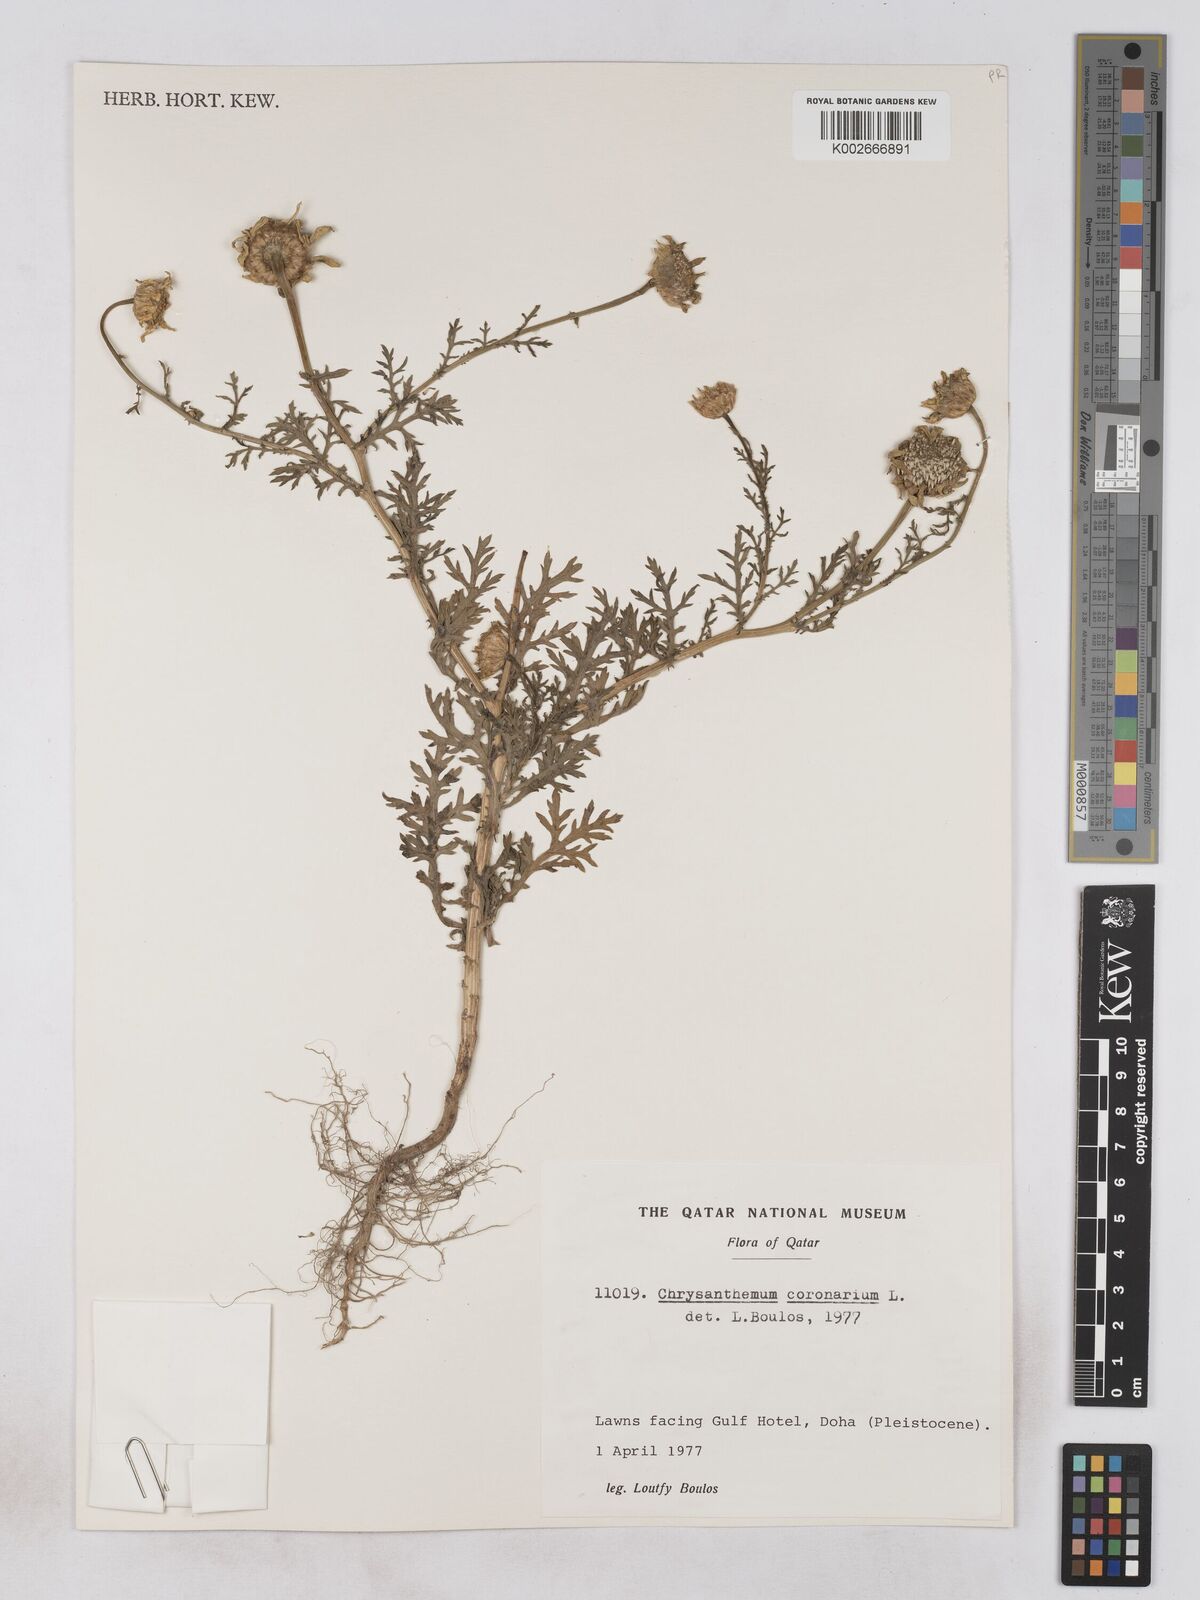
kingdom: Plantae
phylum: Tracheophyta
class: Magnoliopsida
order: Asterales
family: Asteraceae
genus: Glebionis
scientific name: Glebionis coronaria
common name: Crowndaisy
